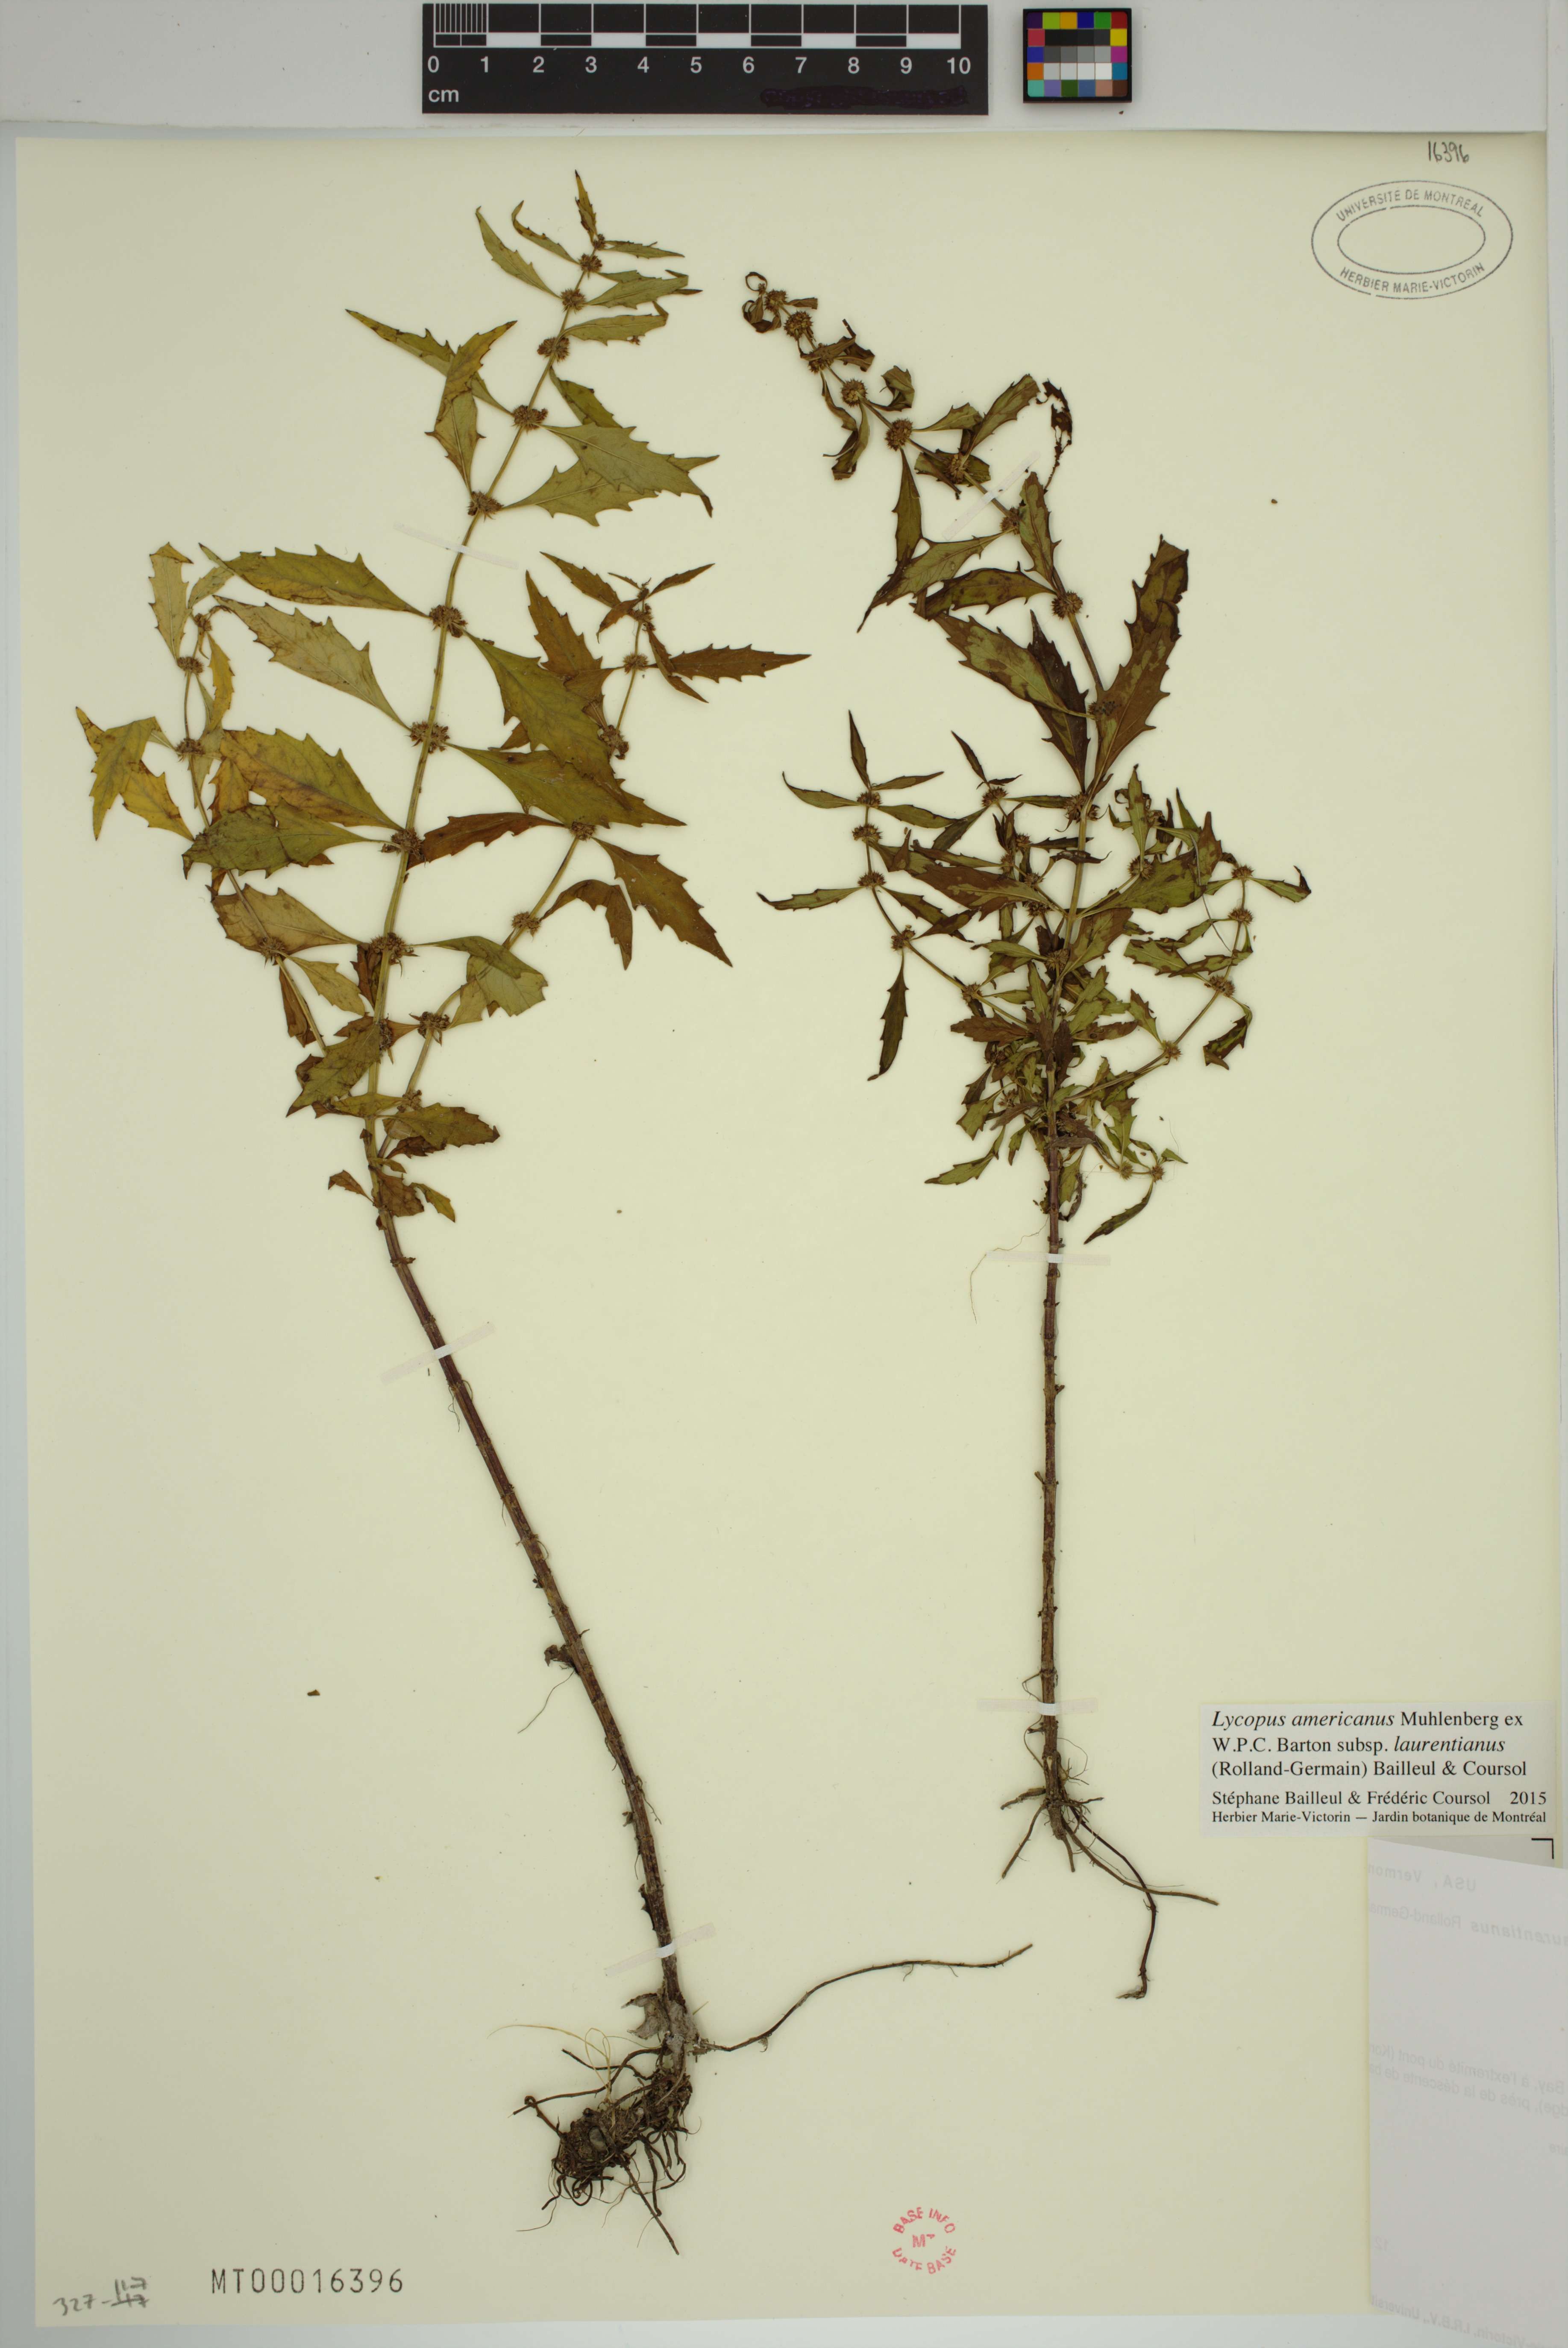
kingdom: Plantae
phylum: Tracheophyta
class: Magnoliopsida
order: Lamiales
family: Lamiaceae
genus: Lycopus
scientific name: Lycopus americanus
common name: American bugleweed
